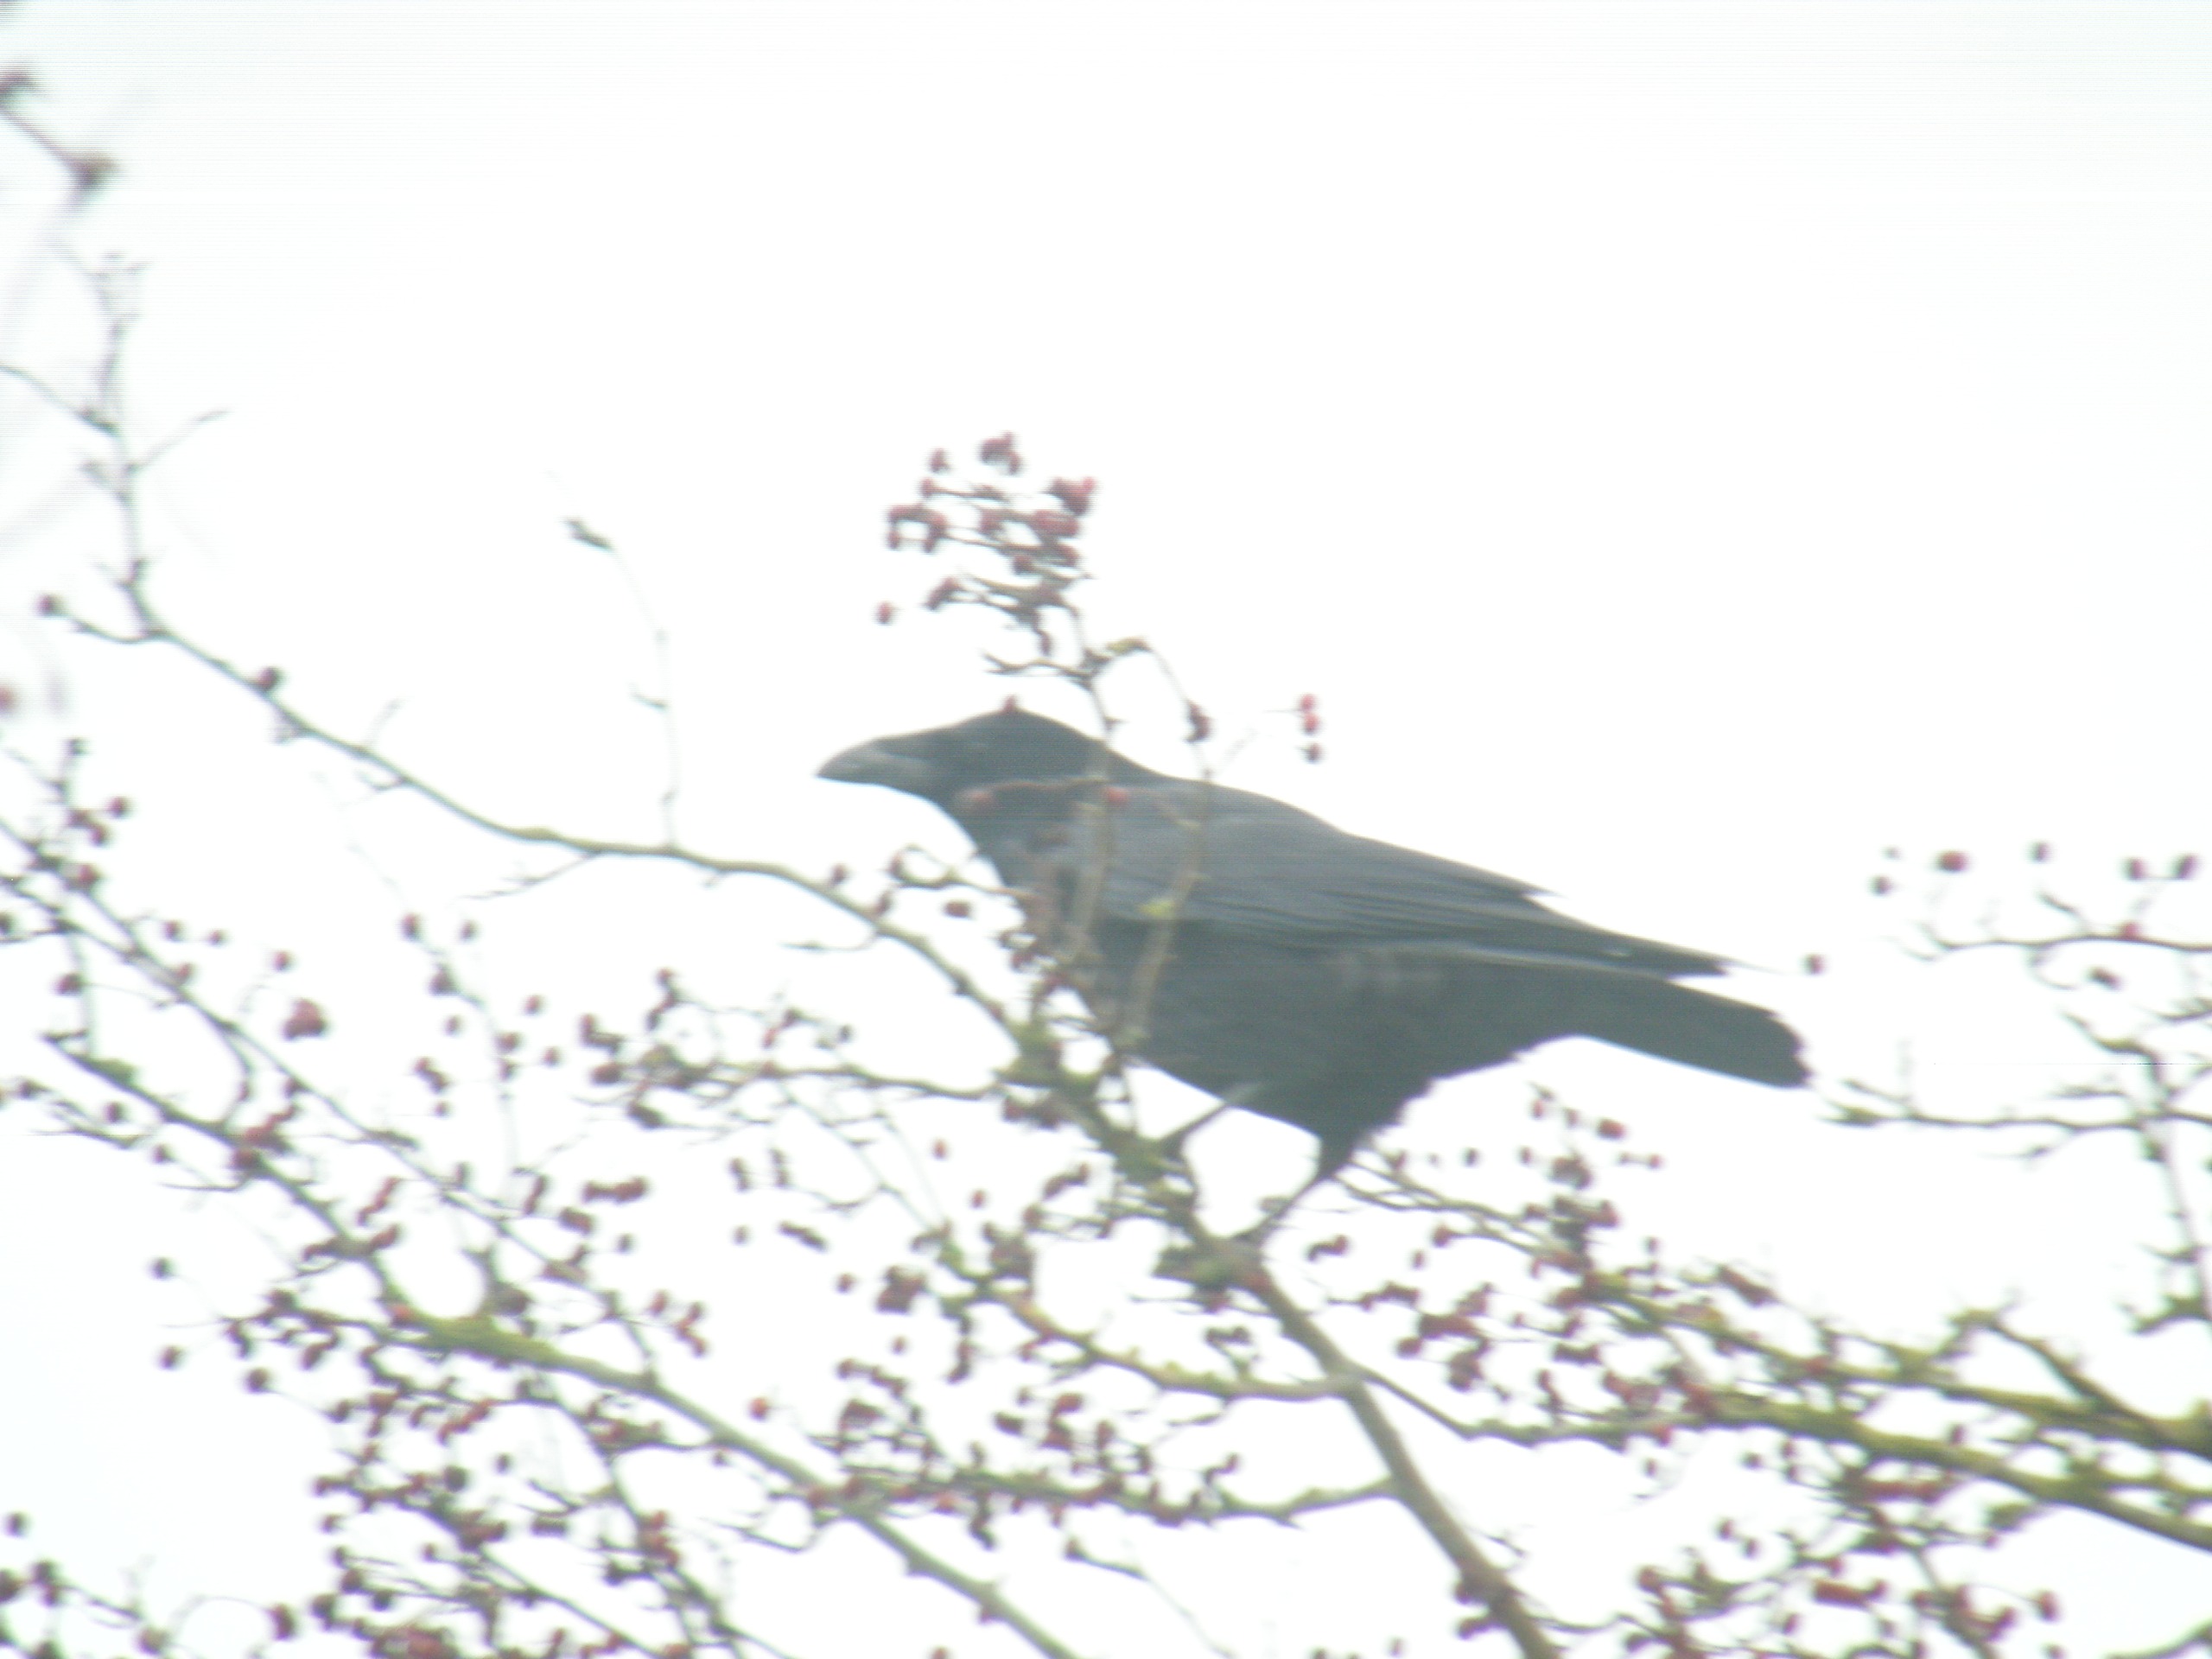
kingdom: Animalia
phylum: Chordata
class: Aves
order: Passeriformes
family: Corvidae
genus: Corvus
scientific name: Corvus corax
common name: Ravn
